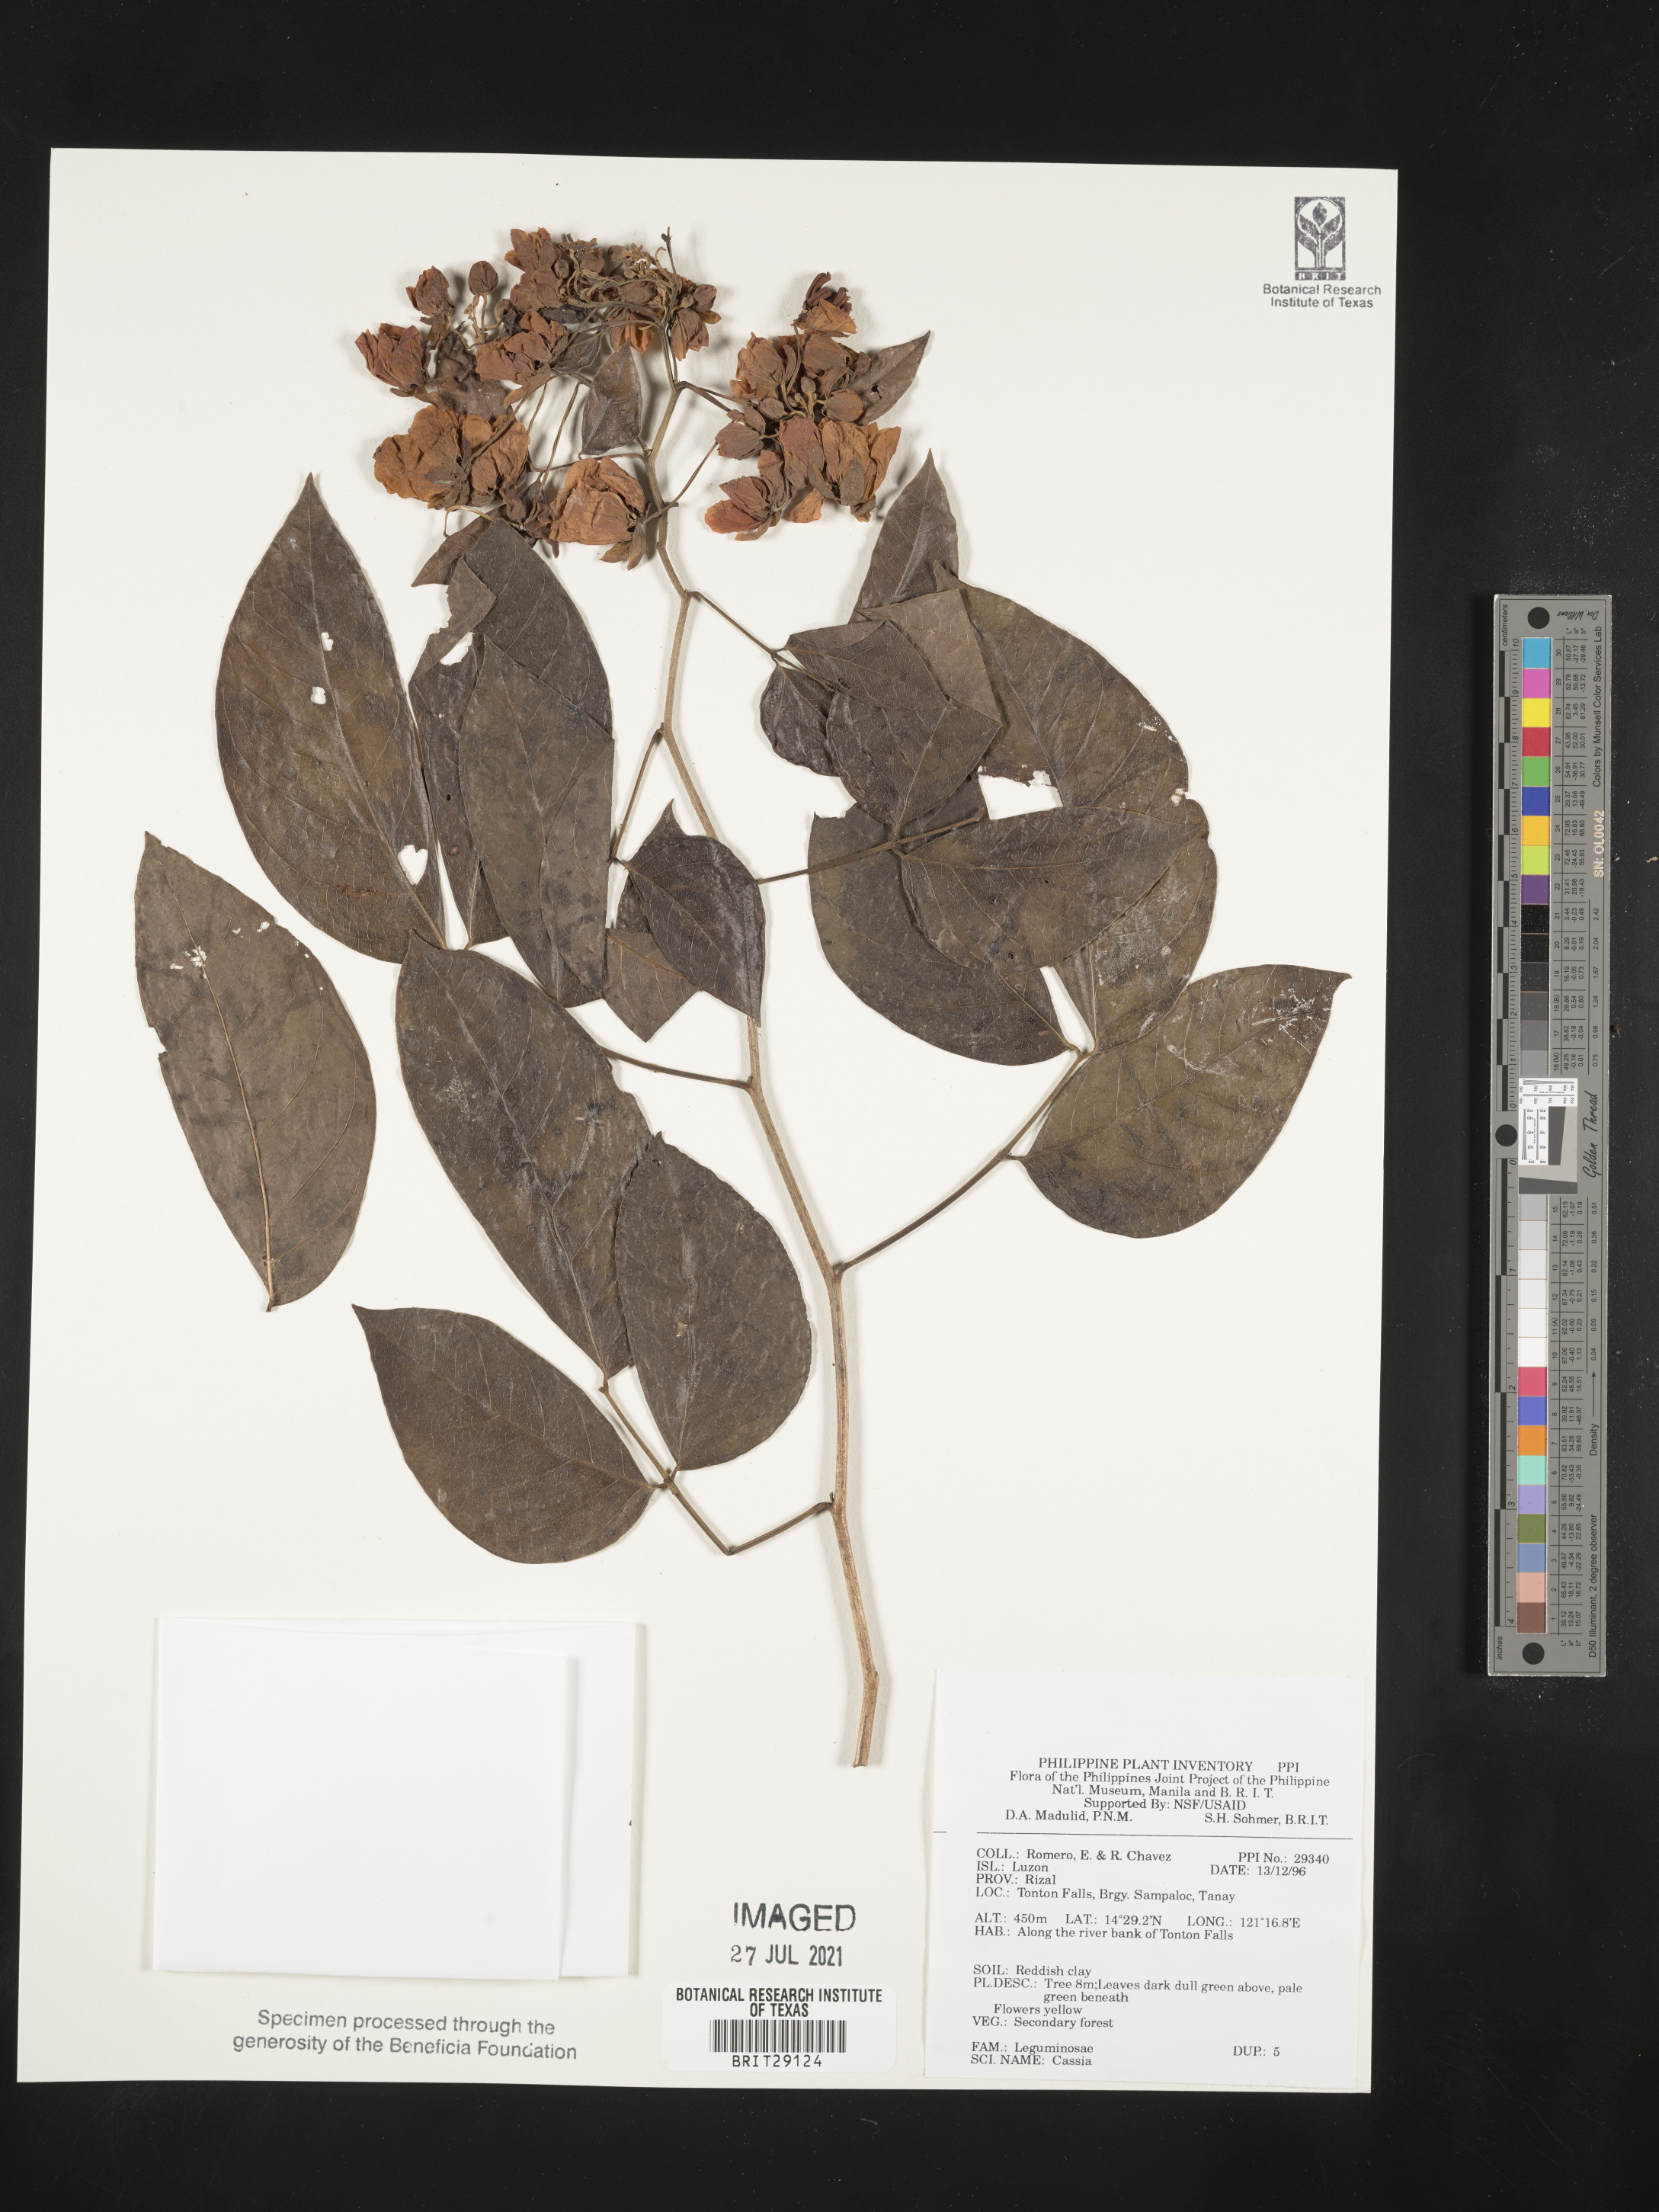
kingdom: Plantae
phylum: Tracheophyta
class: Magnoliopsida
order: Fabales
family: Fabaceae
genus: Cassia
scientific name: Cassia
